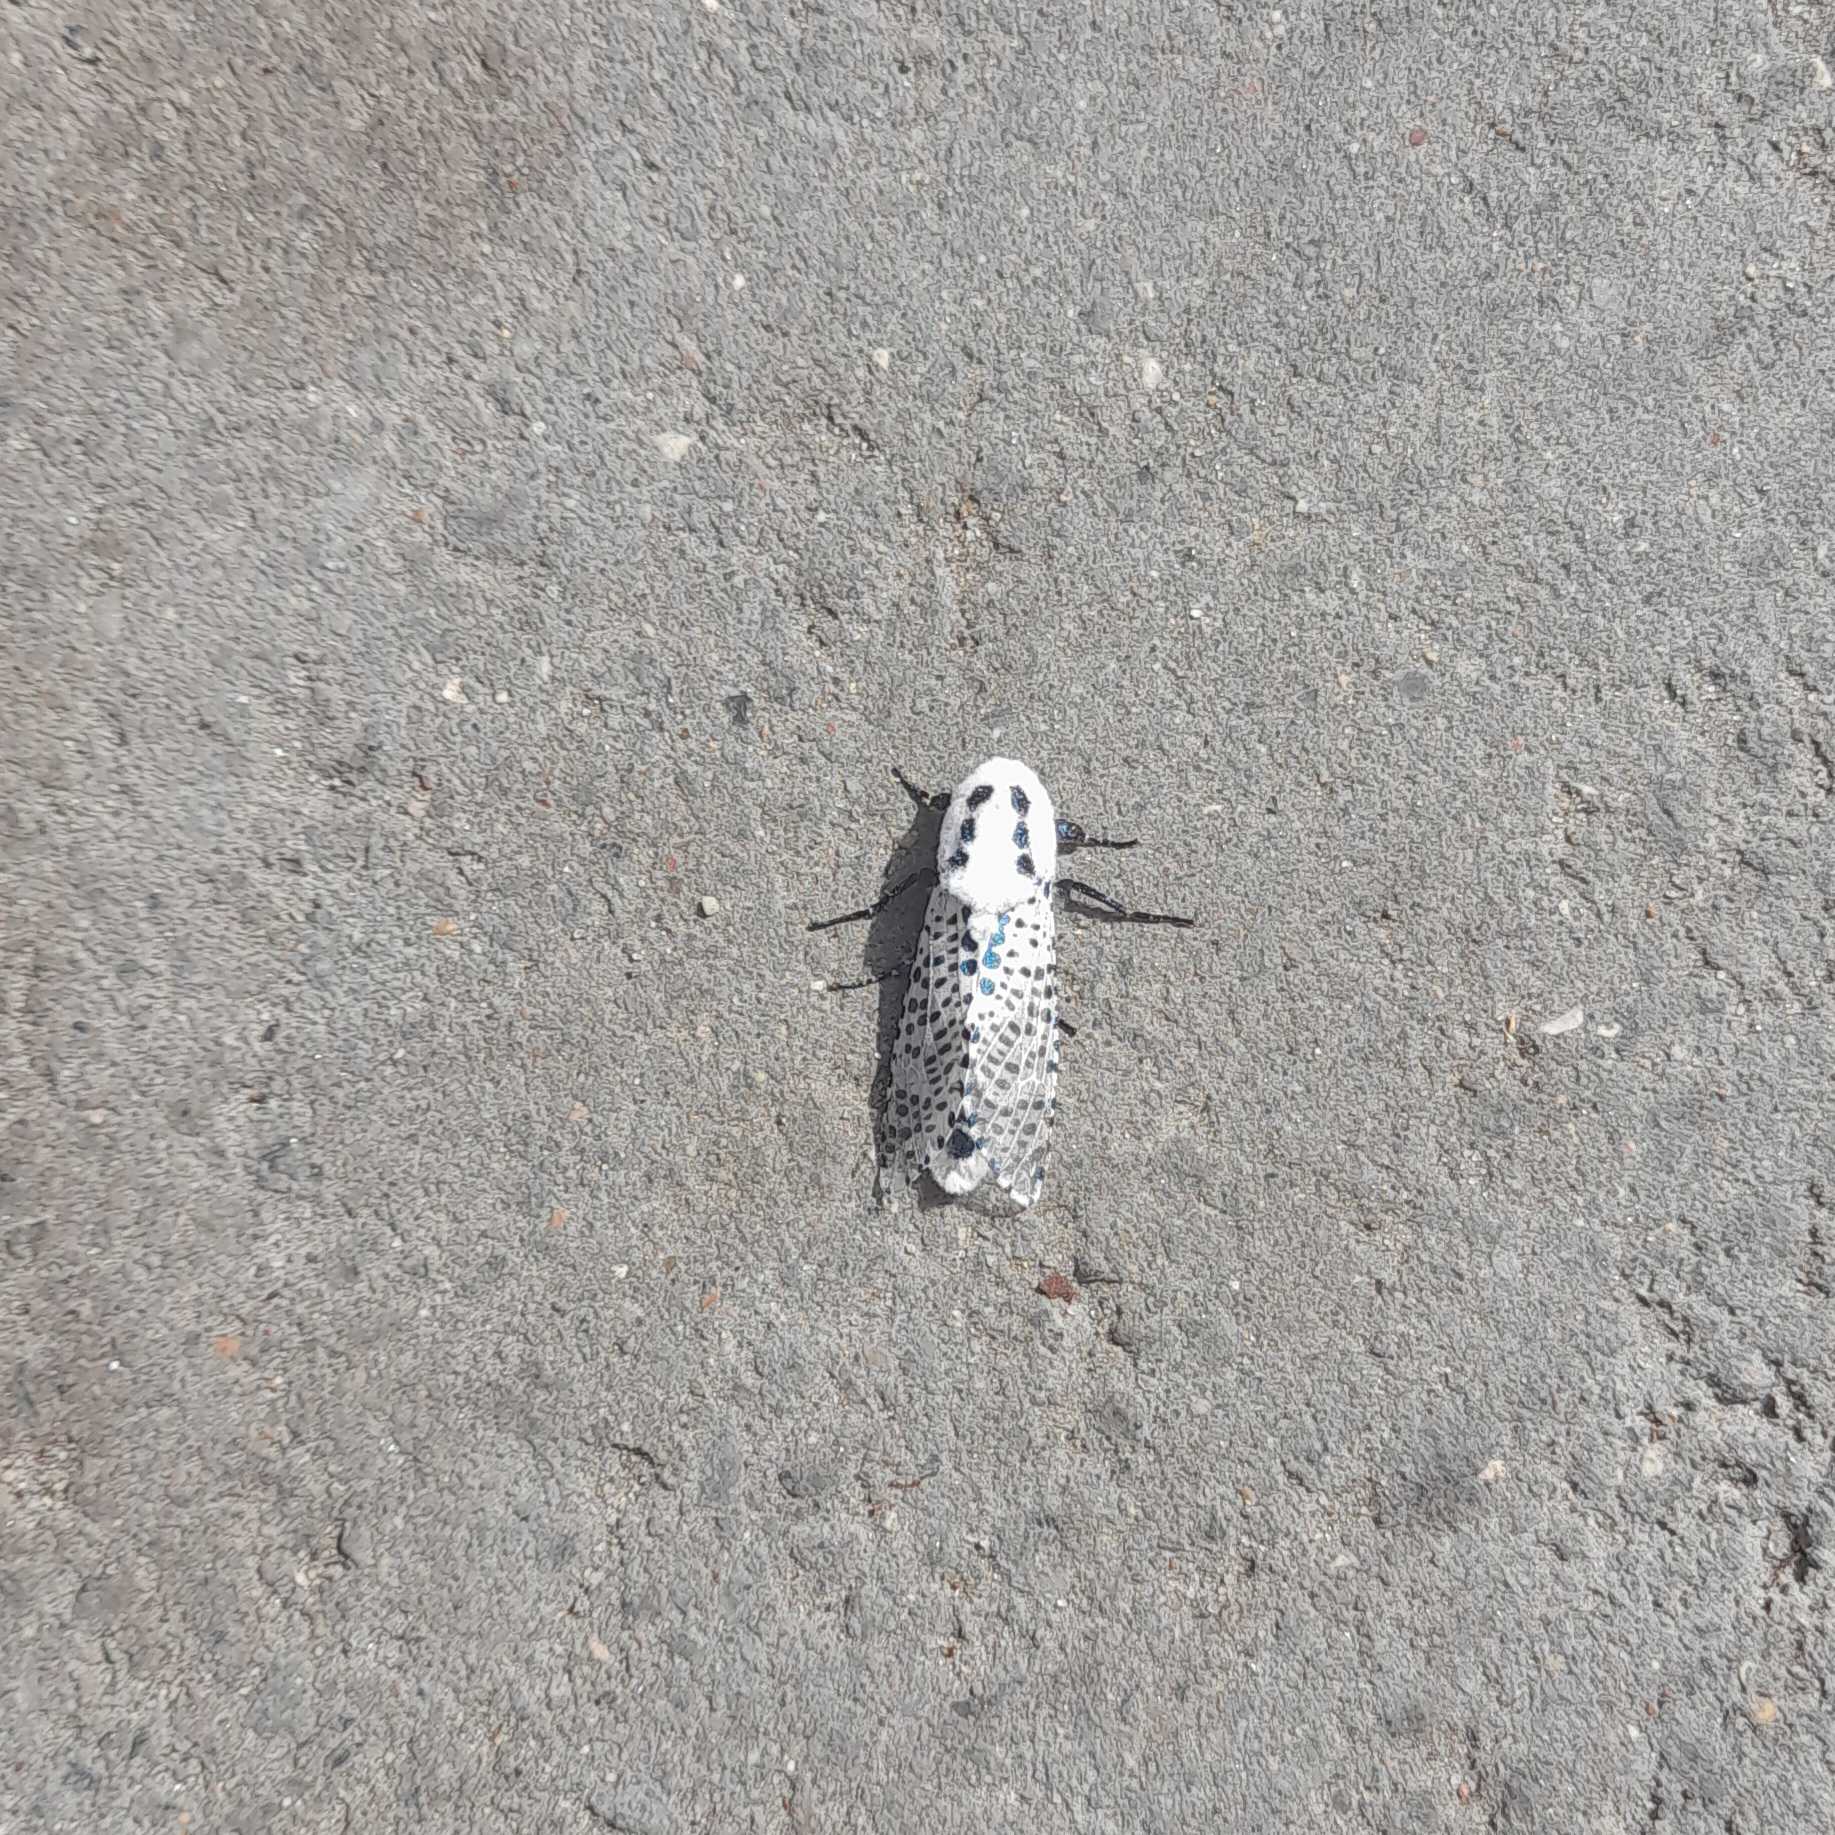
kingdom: Animalia
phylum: Arthropoda
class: Insecta
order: Lepidoptera
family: Cossidae
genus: Zeuzera
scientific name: Zeuzera pyrina
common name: Plettet træborer
